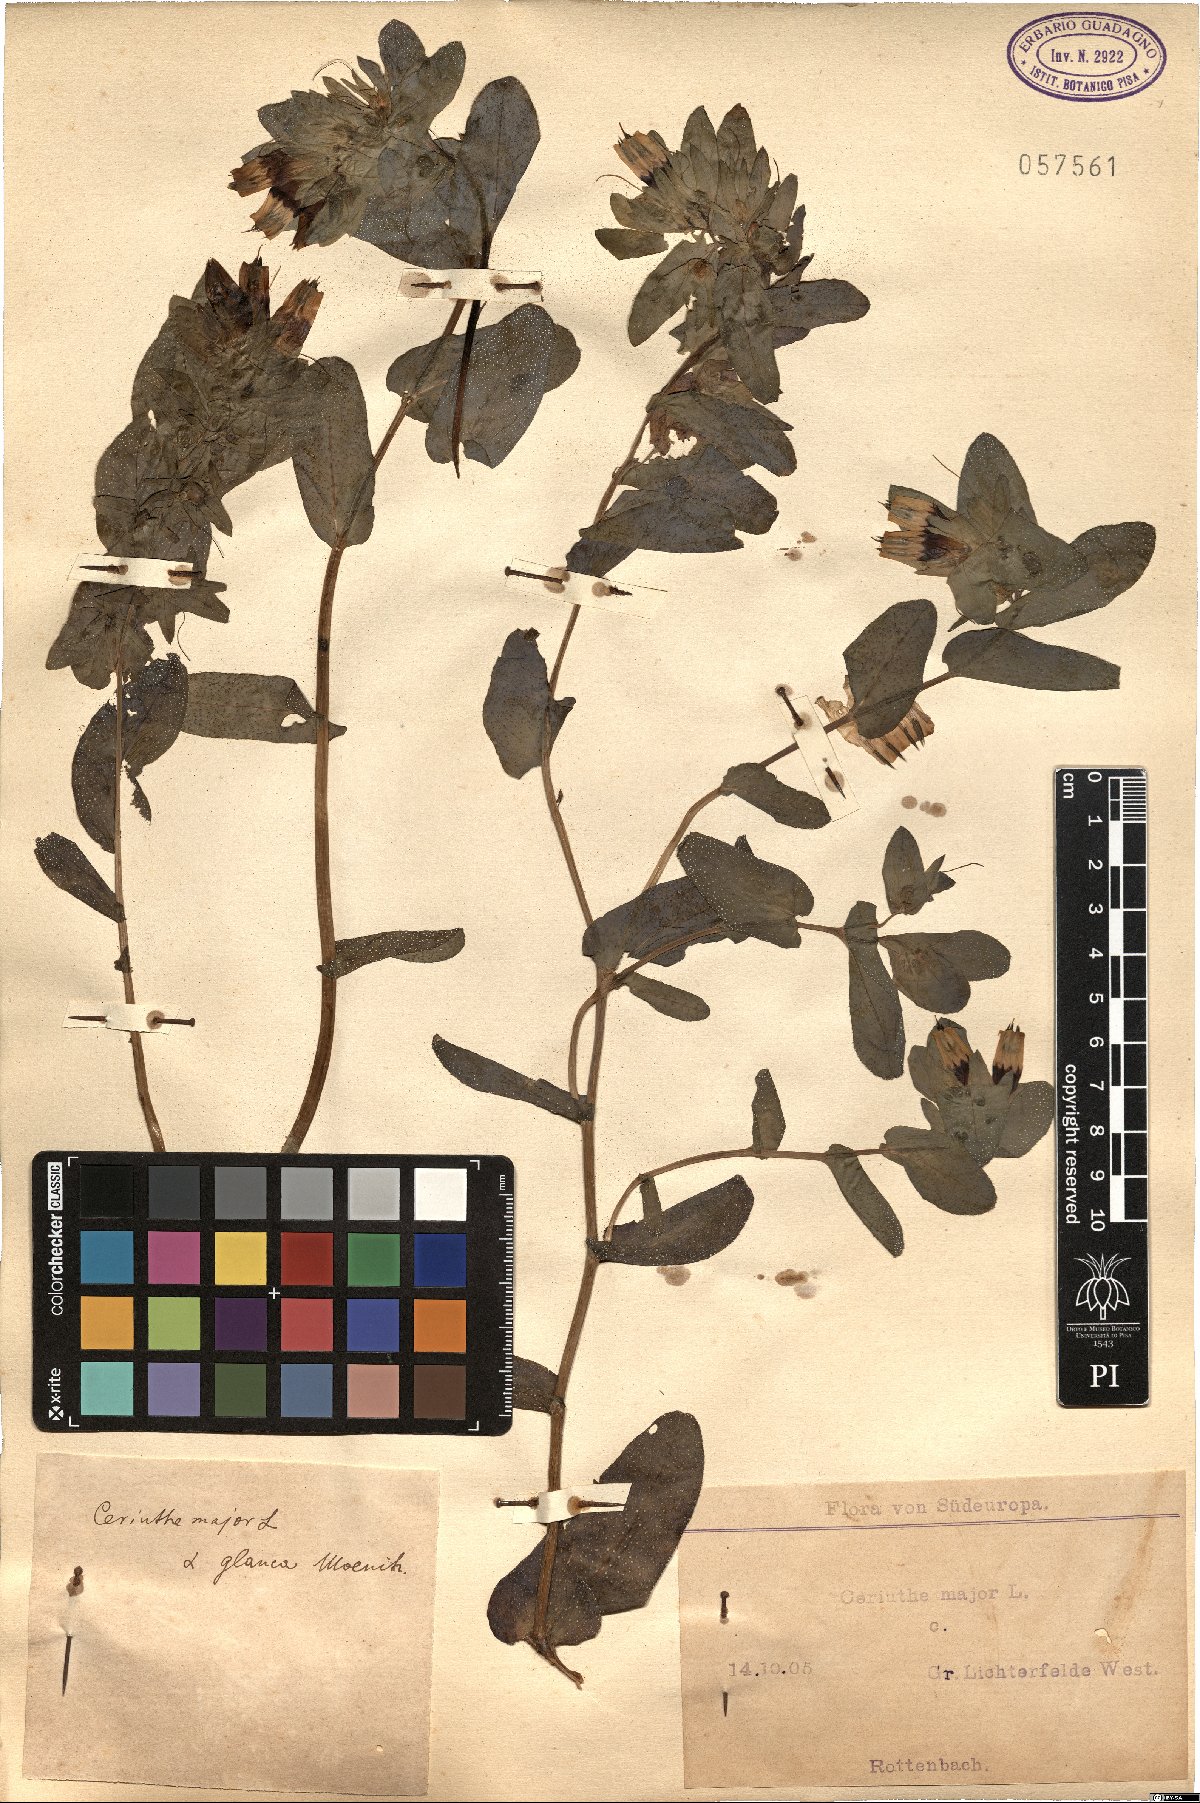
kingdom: Plantae
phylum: Tracheophyta
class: Magnoliopsida
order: Boraginales
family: Boraginaceae
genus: Cerinthe
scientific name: Cerinthe major
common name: Greater honeywort
